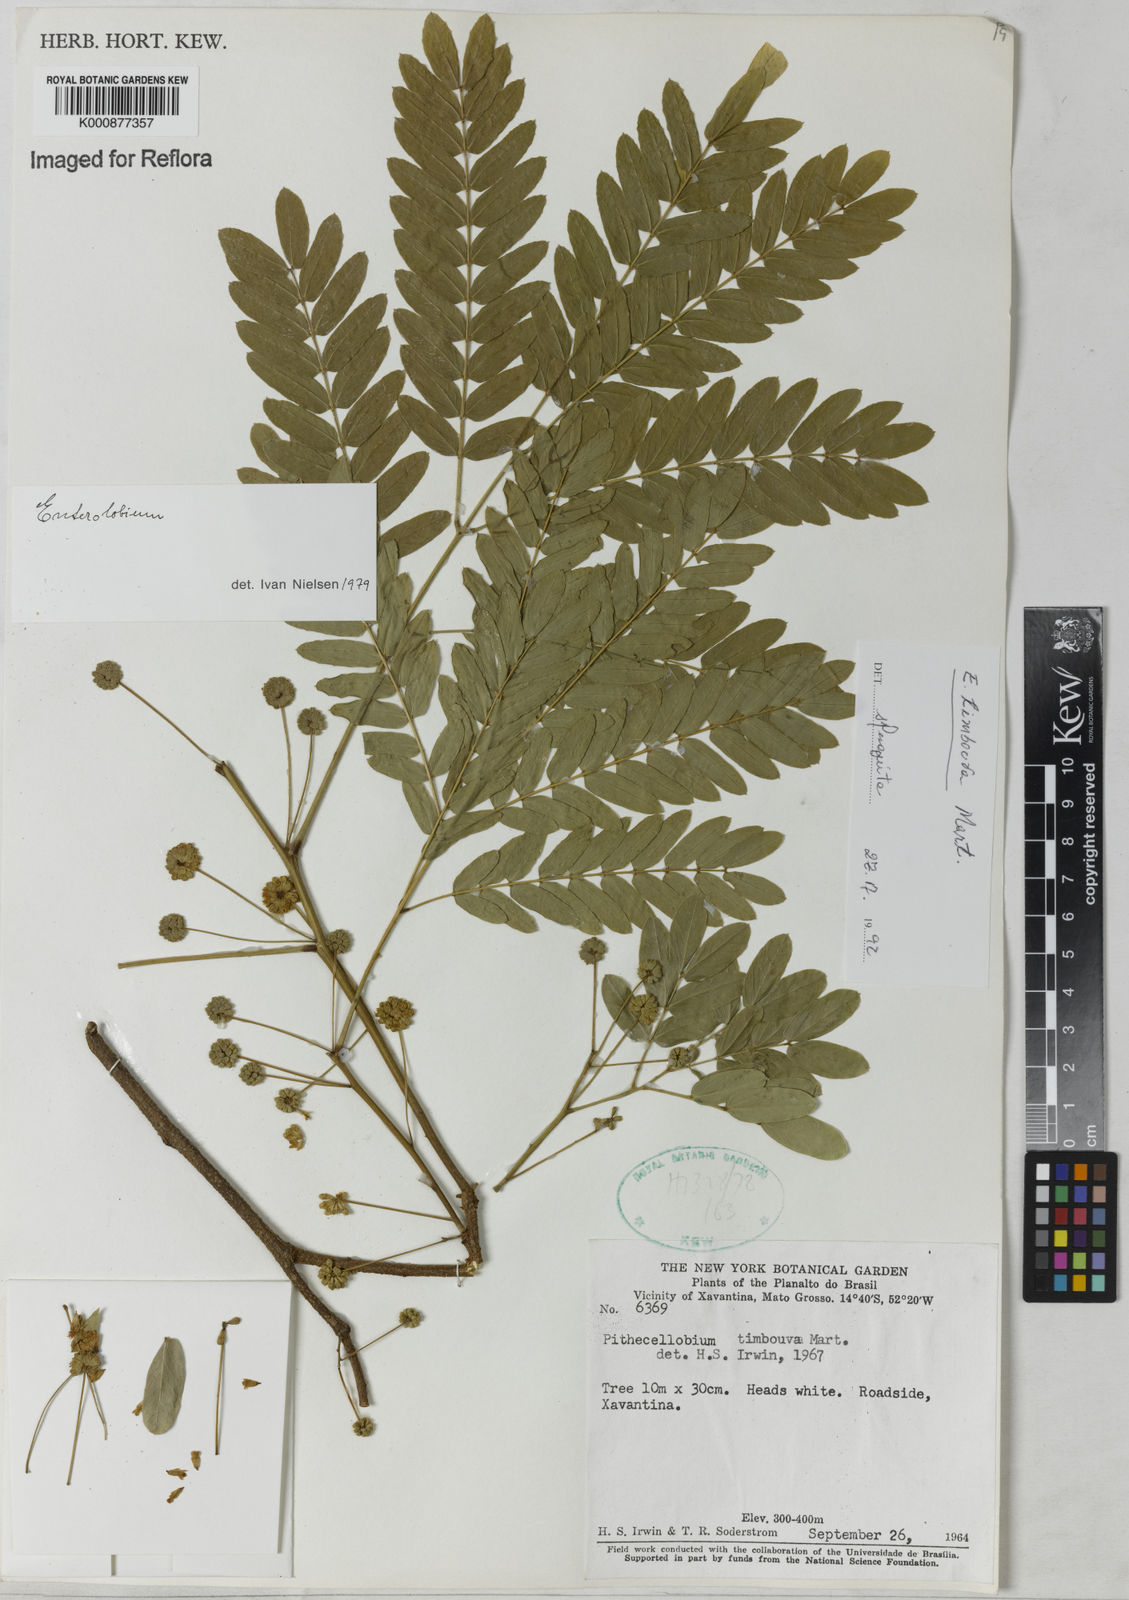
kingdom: Plantae
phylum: Tracheophyta
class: Magnoliopsida
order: Fabales
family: Fabaceae
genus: Enterolobium
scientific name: Enterolobium timbouva
